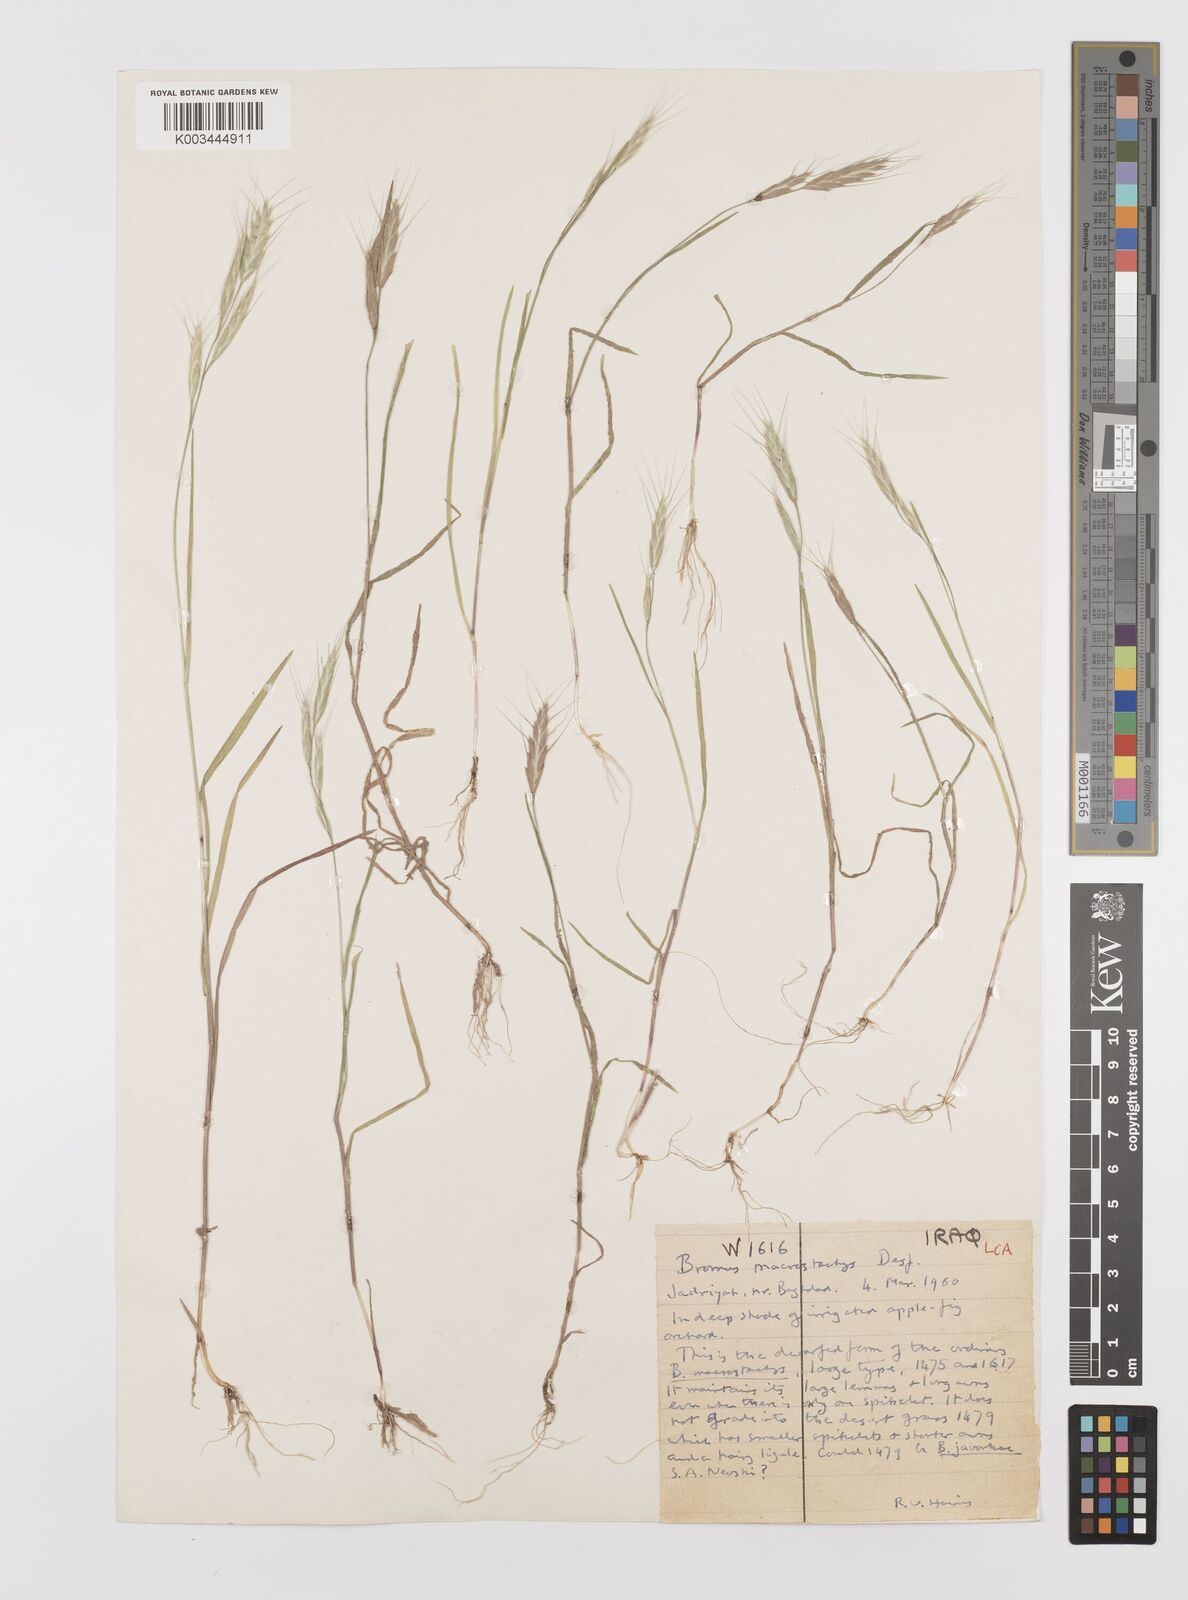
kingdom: Plantae
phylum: Tracheophyta
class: Liliopsida
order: Poales
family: Poaceae
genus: Bromus
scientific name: Bromus lanceolatus
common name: Mediterranean brome
